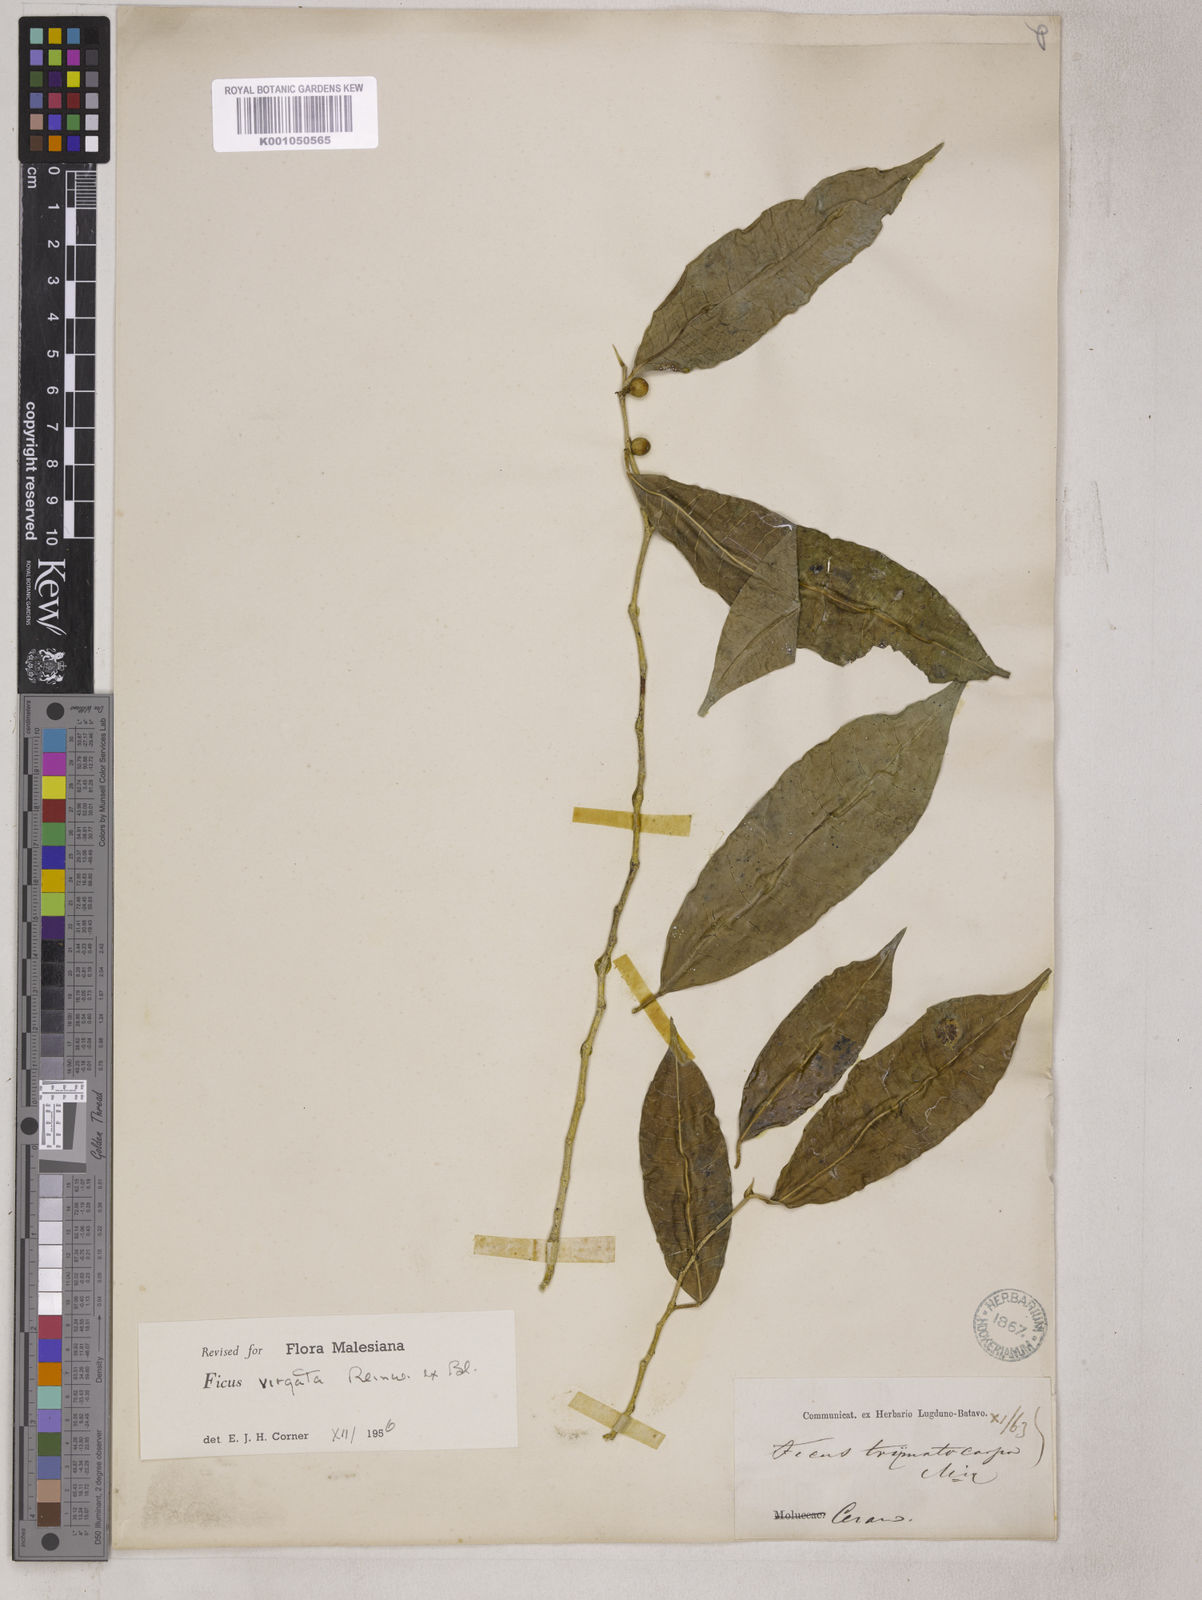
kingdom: Plantae
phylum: Tracheophyta
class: Magnoliopsida
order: Rosales
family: Moraceae
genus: Ficus
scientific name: Ficus virgata
